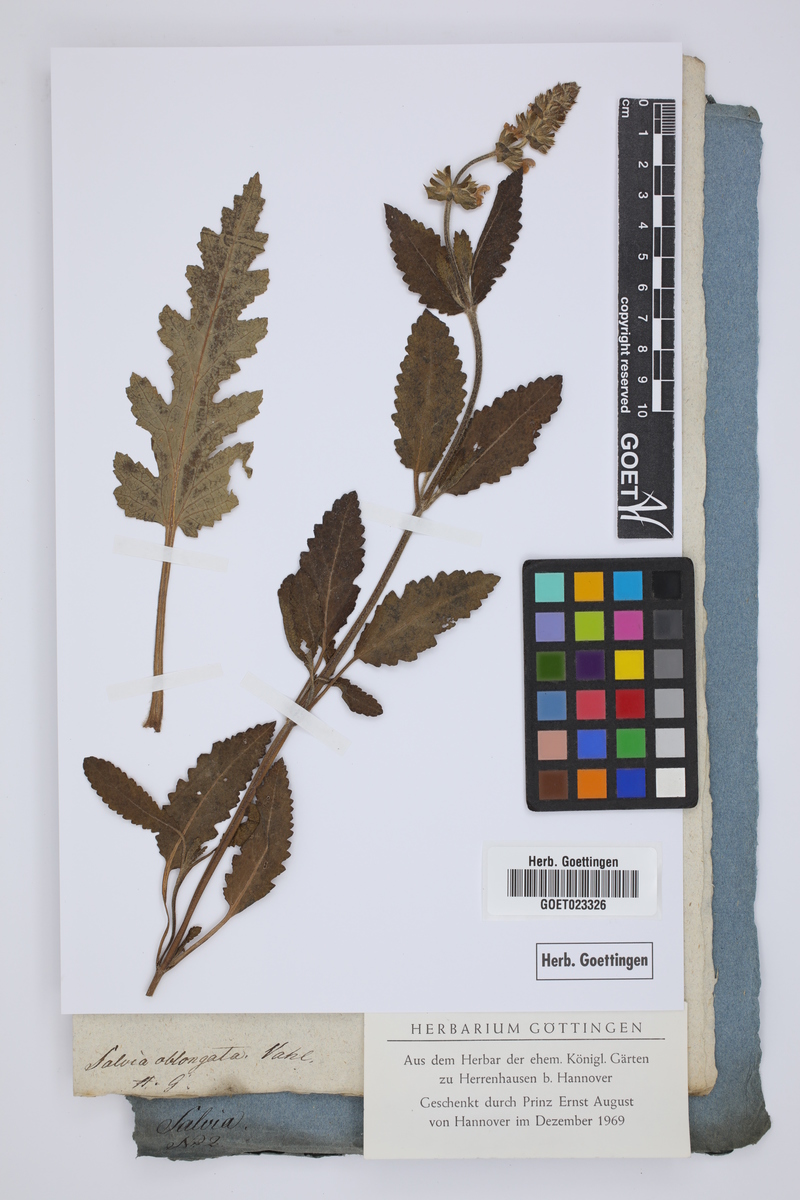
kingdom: Plantae
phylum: Tracheophyta
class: Magnoliopsida
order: Lamiales
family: Lamiaceae
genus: Salvia
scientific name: Salvia verbenaca
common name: Wild clary
